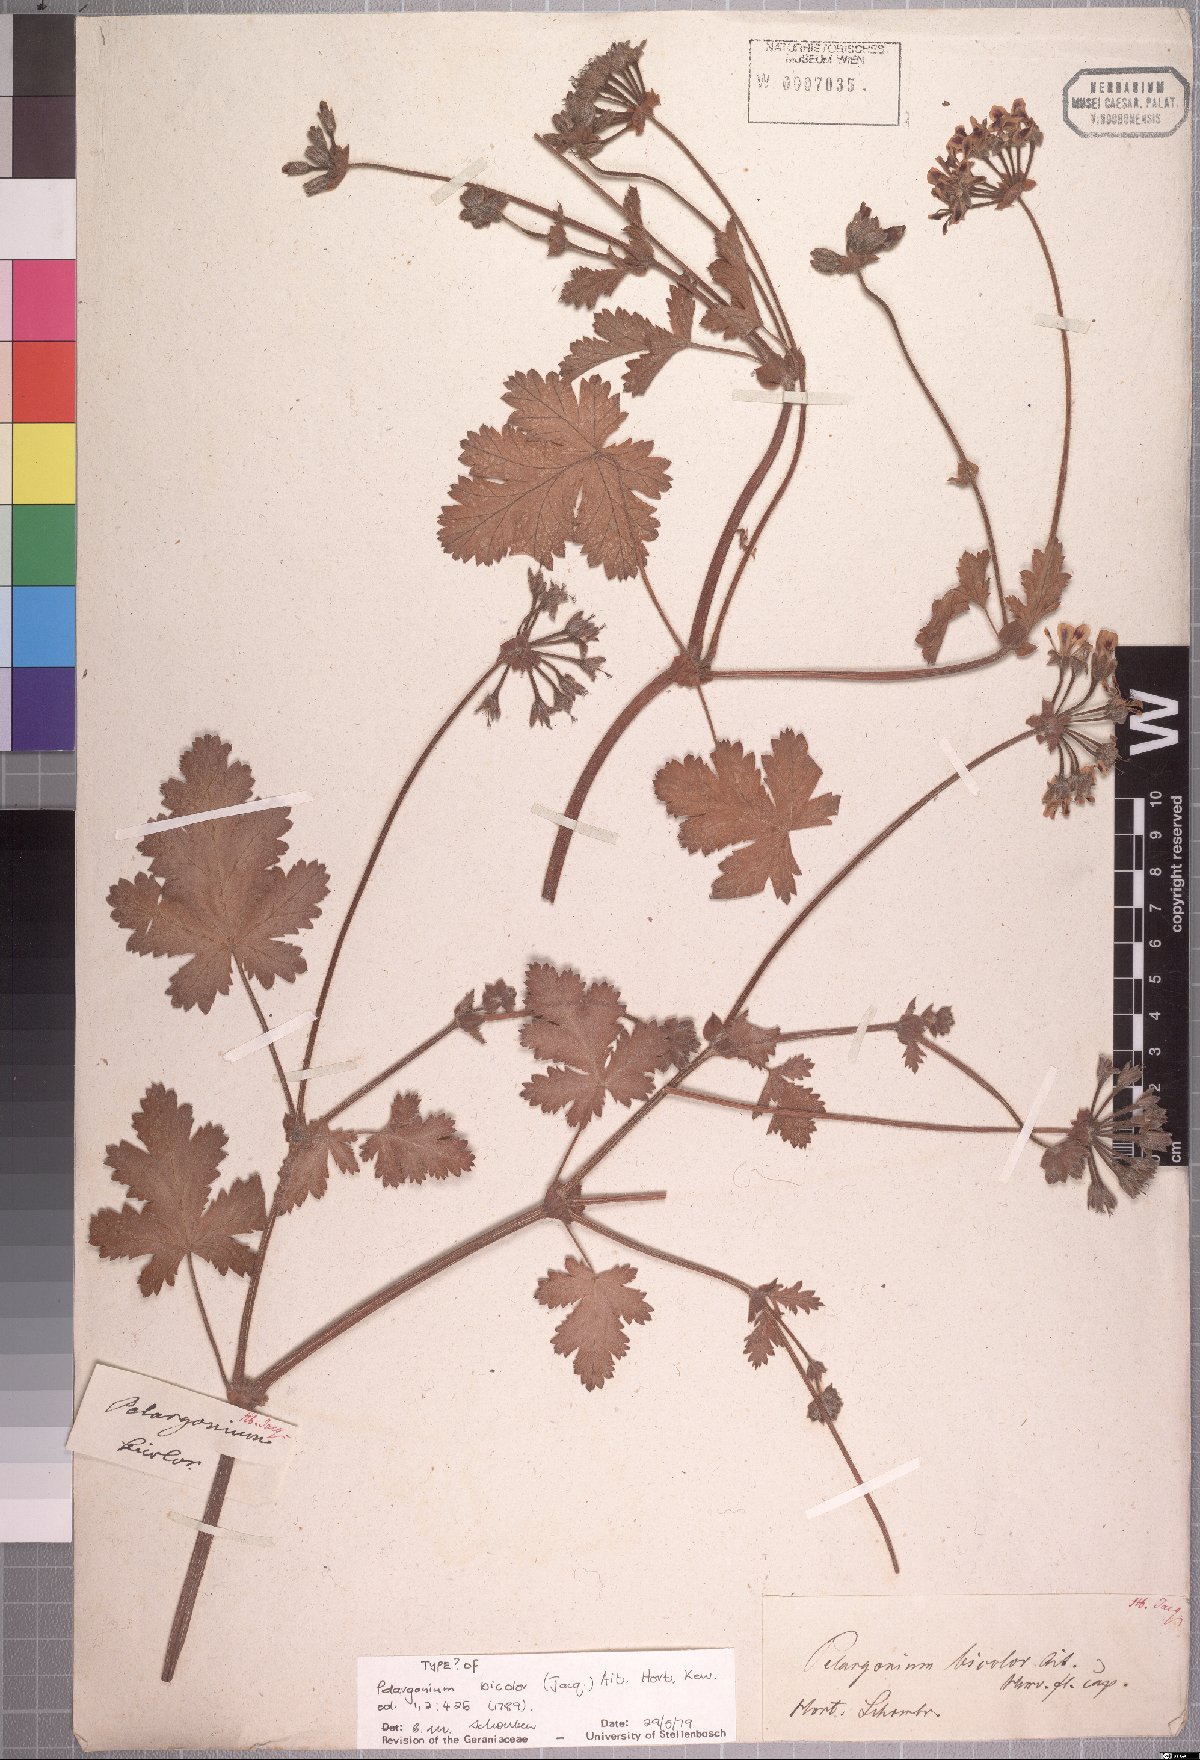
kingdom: Plantae
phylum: Tracheophyta
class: Magnoliopsida
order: Geraniales
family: Geraniaceae
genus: Pelargonium
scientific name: Pelargonium bicolor
